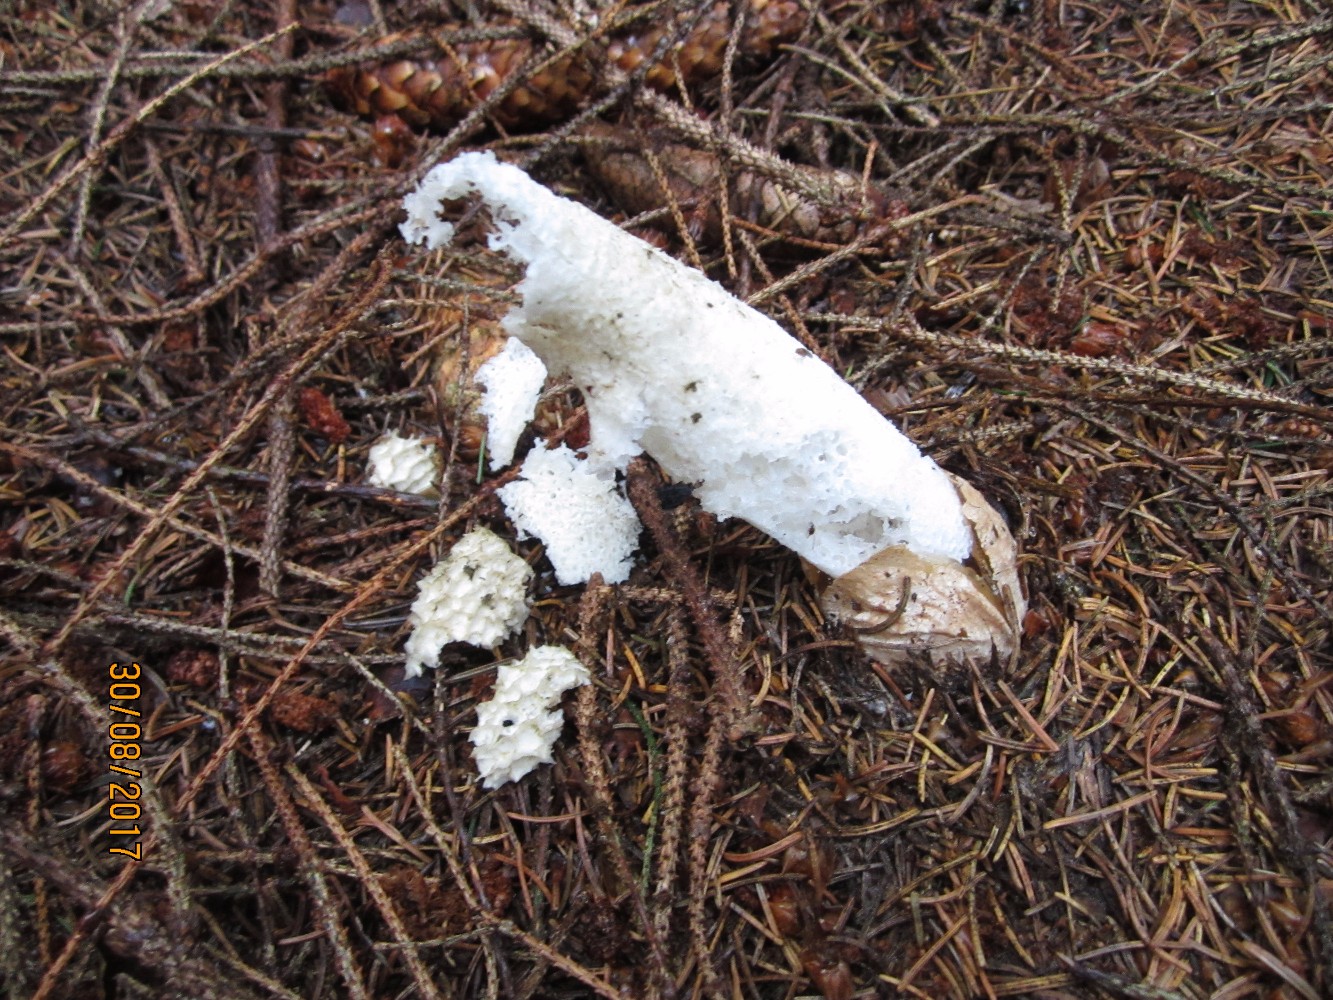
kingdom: Fungi
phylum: Basidiomycota
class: Agaricomycetes
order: Phallales
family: Phallaceae
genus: Phallus
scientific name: Phallus impudicus
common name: almindelig stinksvamp
